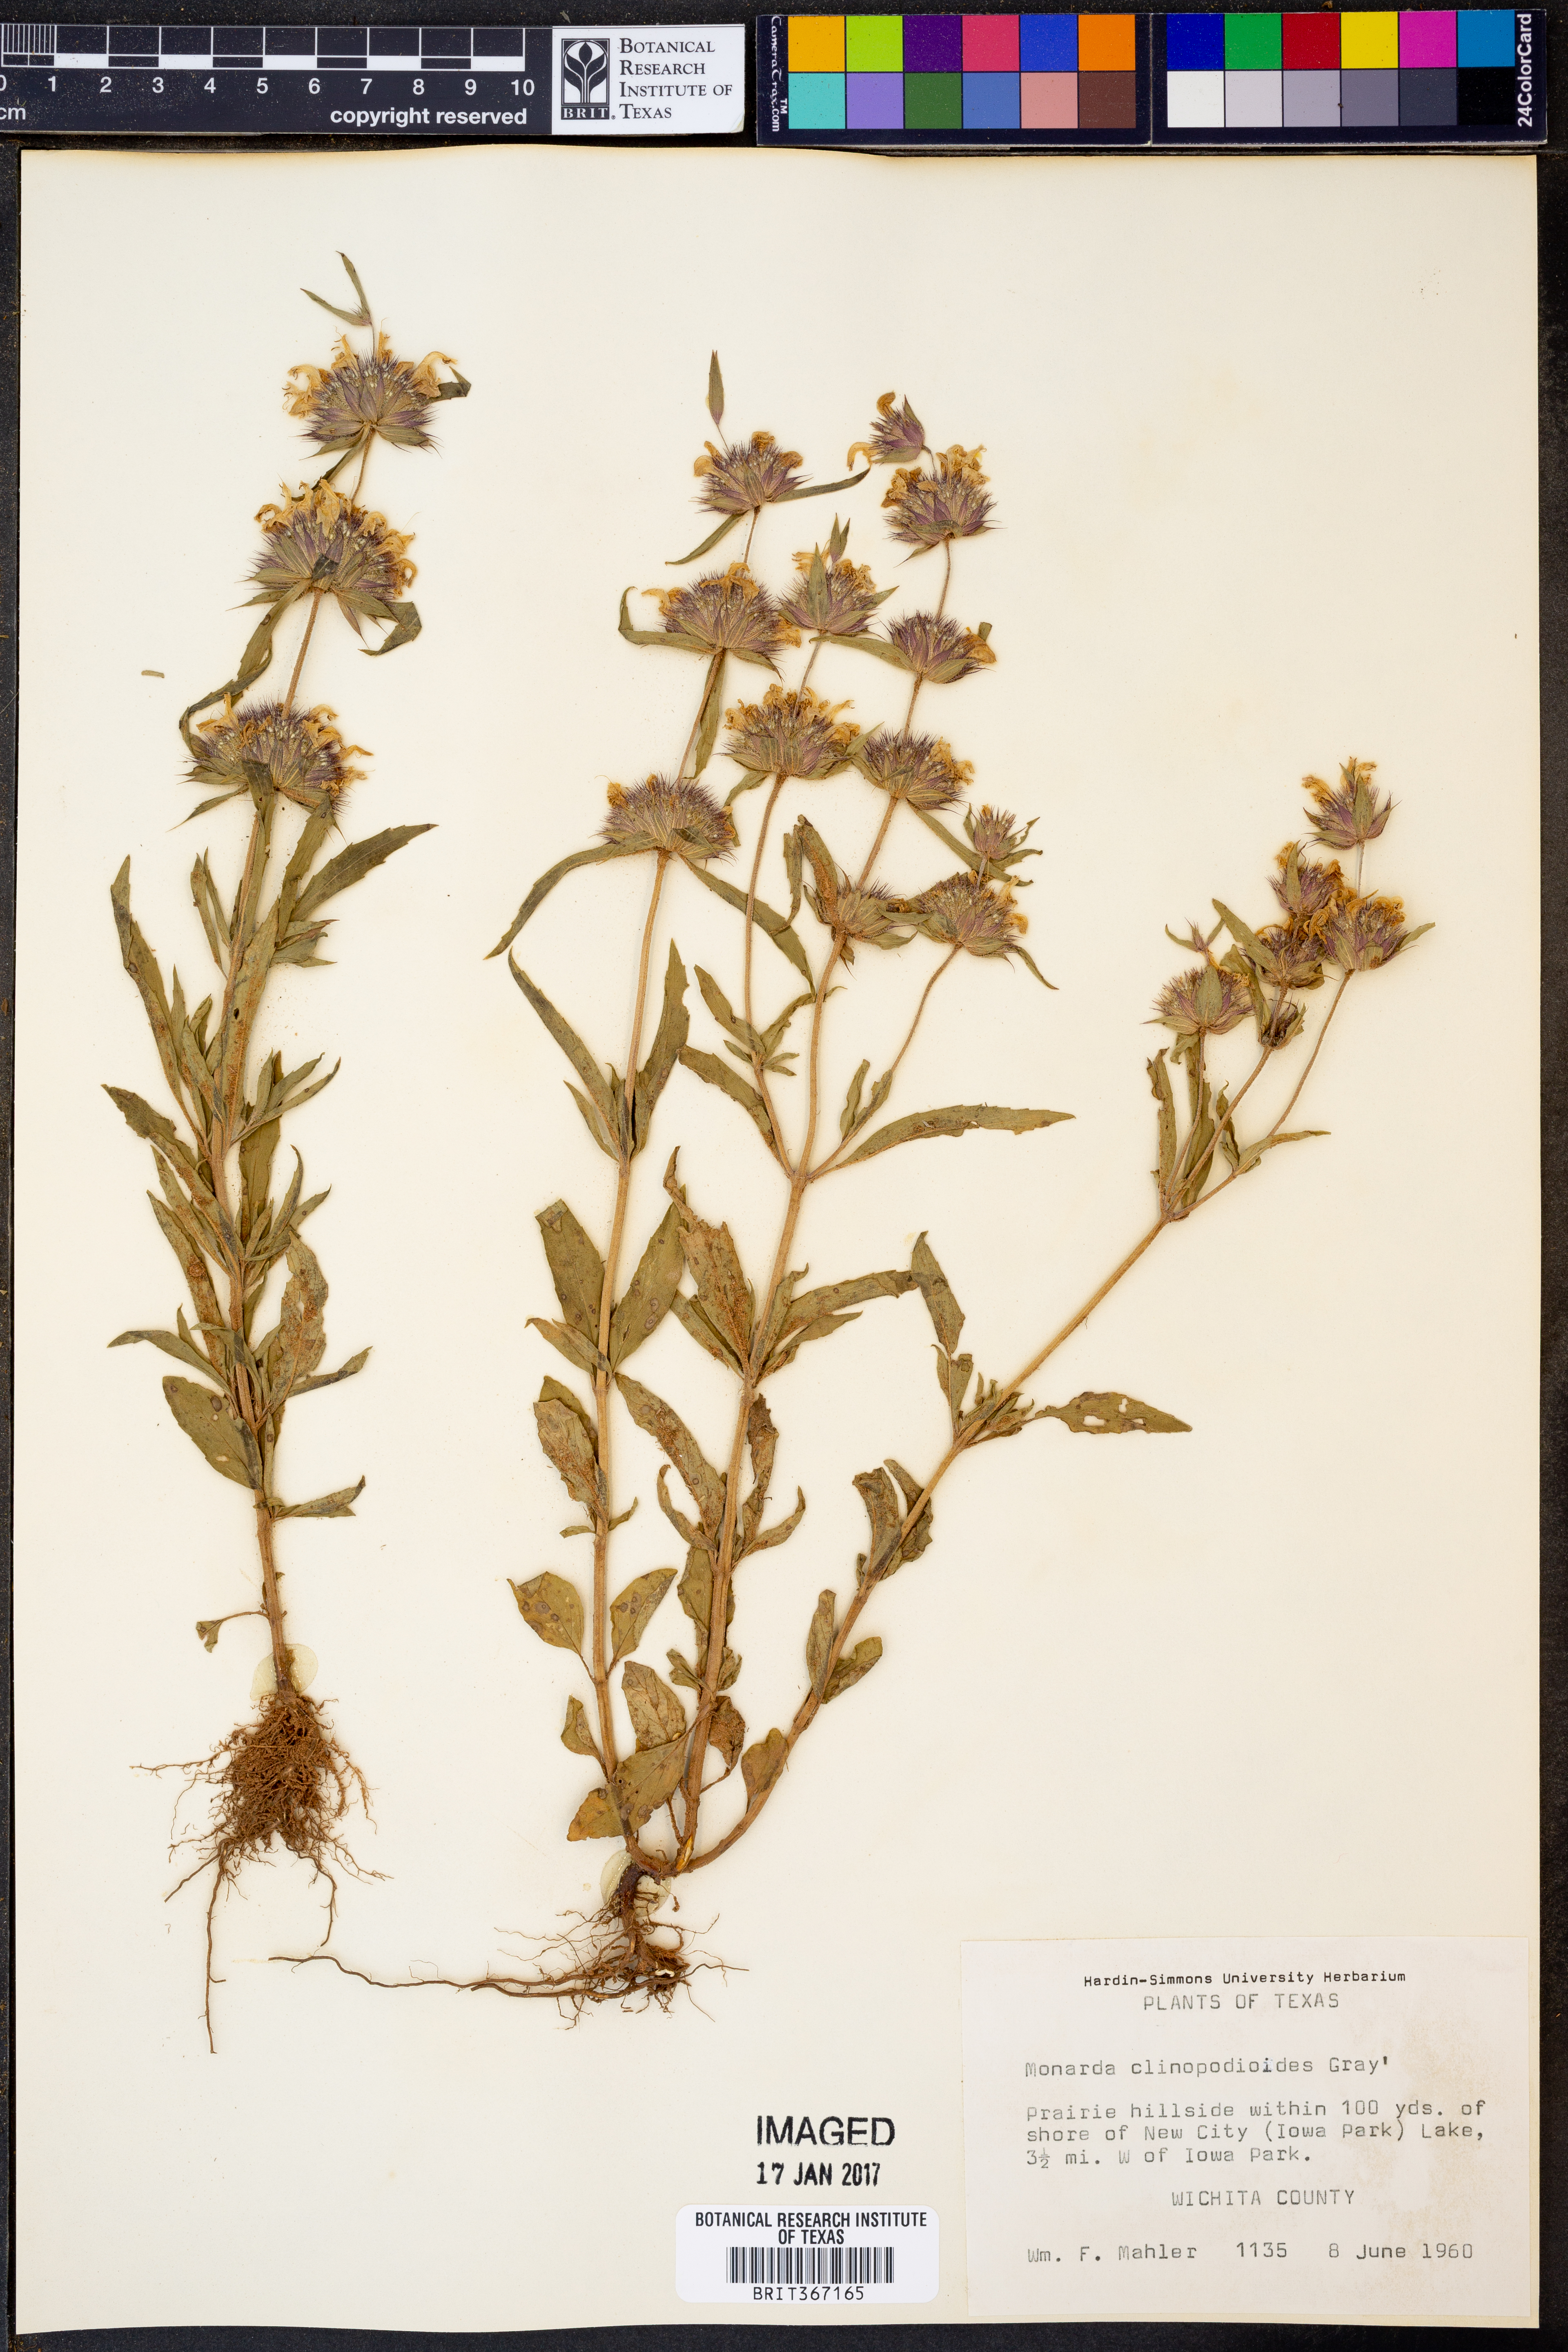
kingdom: Plantae
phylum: Tracheophyta
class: Magnoliopsida
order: Lamiales
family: Lamiaceae
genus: Monarda
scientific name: Monarda clinopodioides
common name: Basil beebalm
